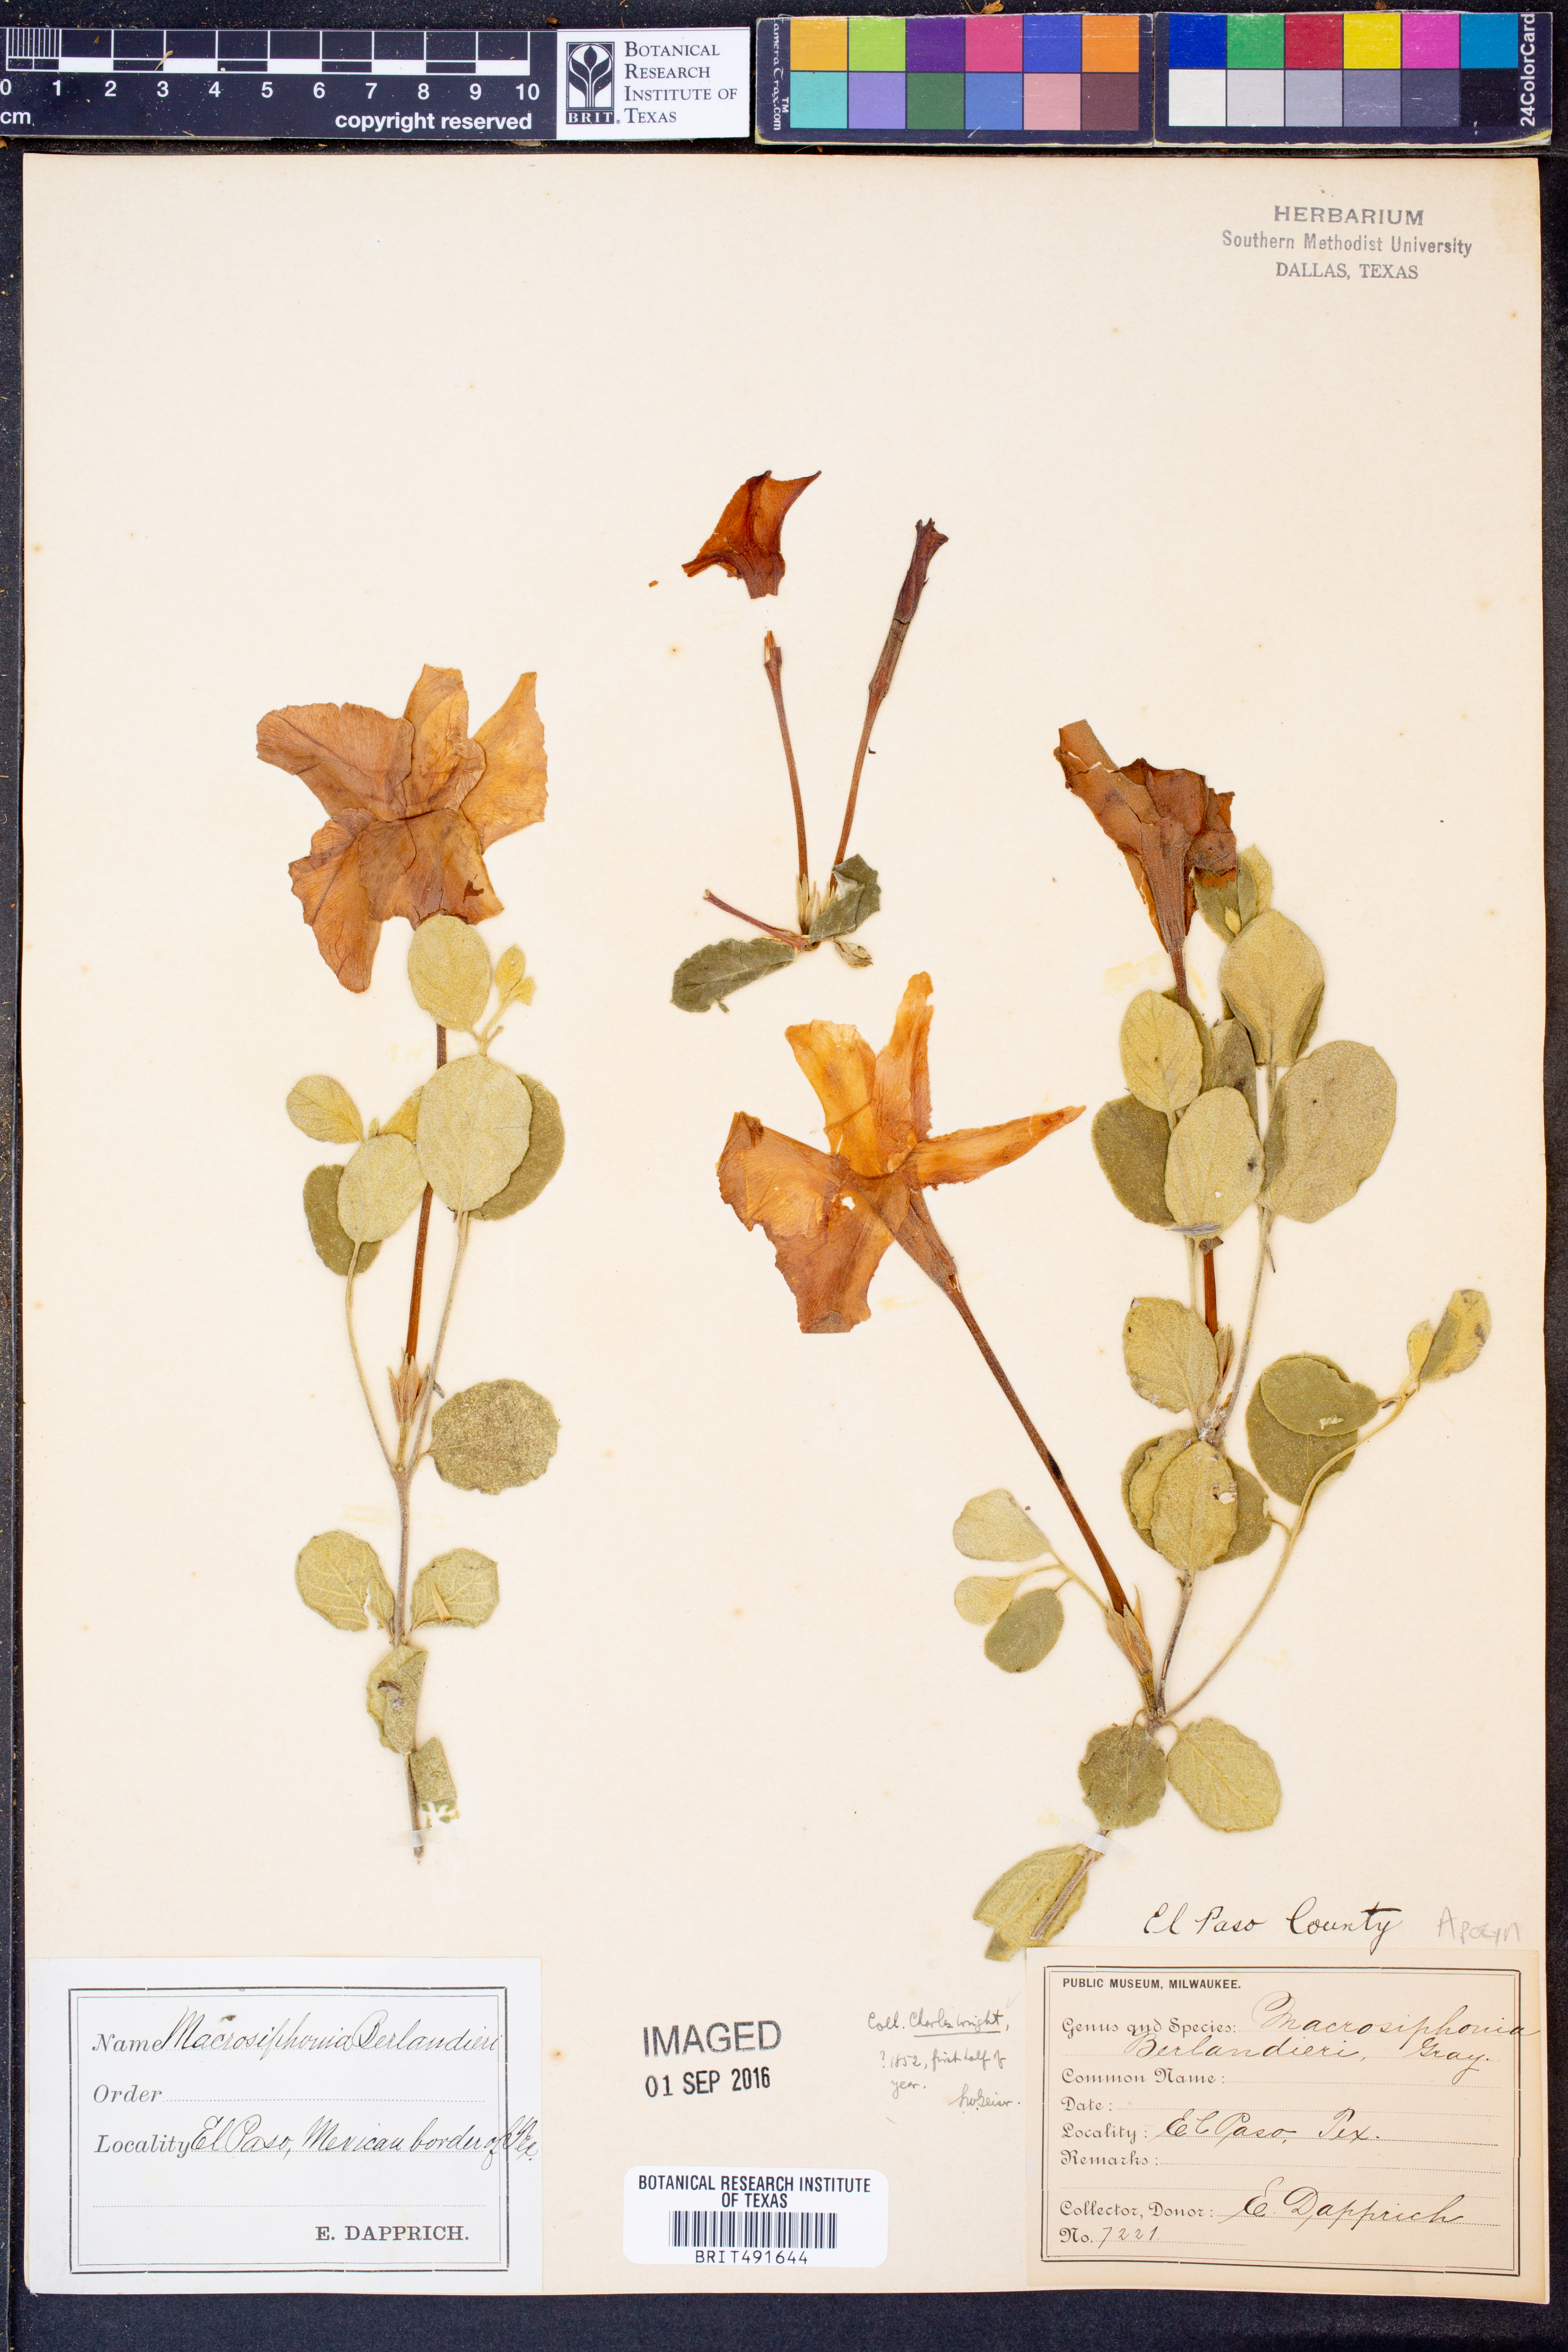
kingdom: Plantae
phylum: Tracheophyta
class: Magnoliopsida
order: Gentianales
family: Apocynaceae
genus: Mandevilla
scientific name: Mandevilla macrosiphon
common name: Plateau rocktrumpet
